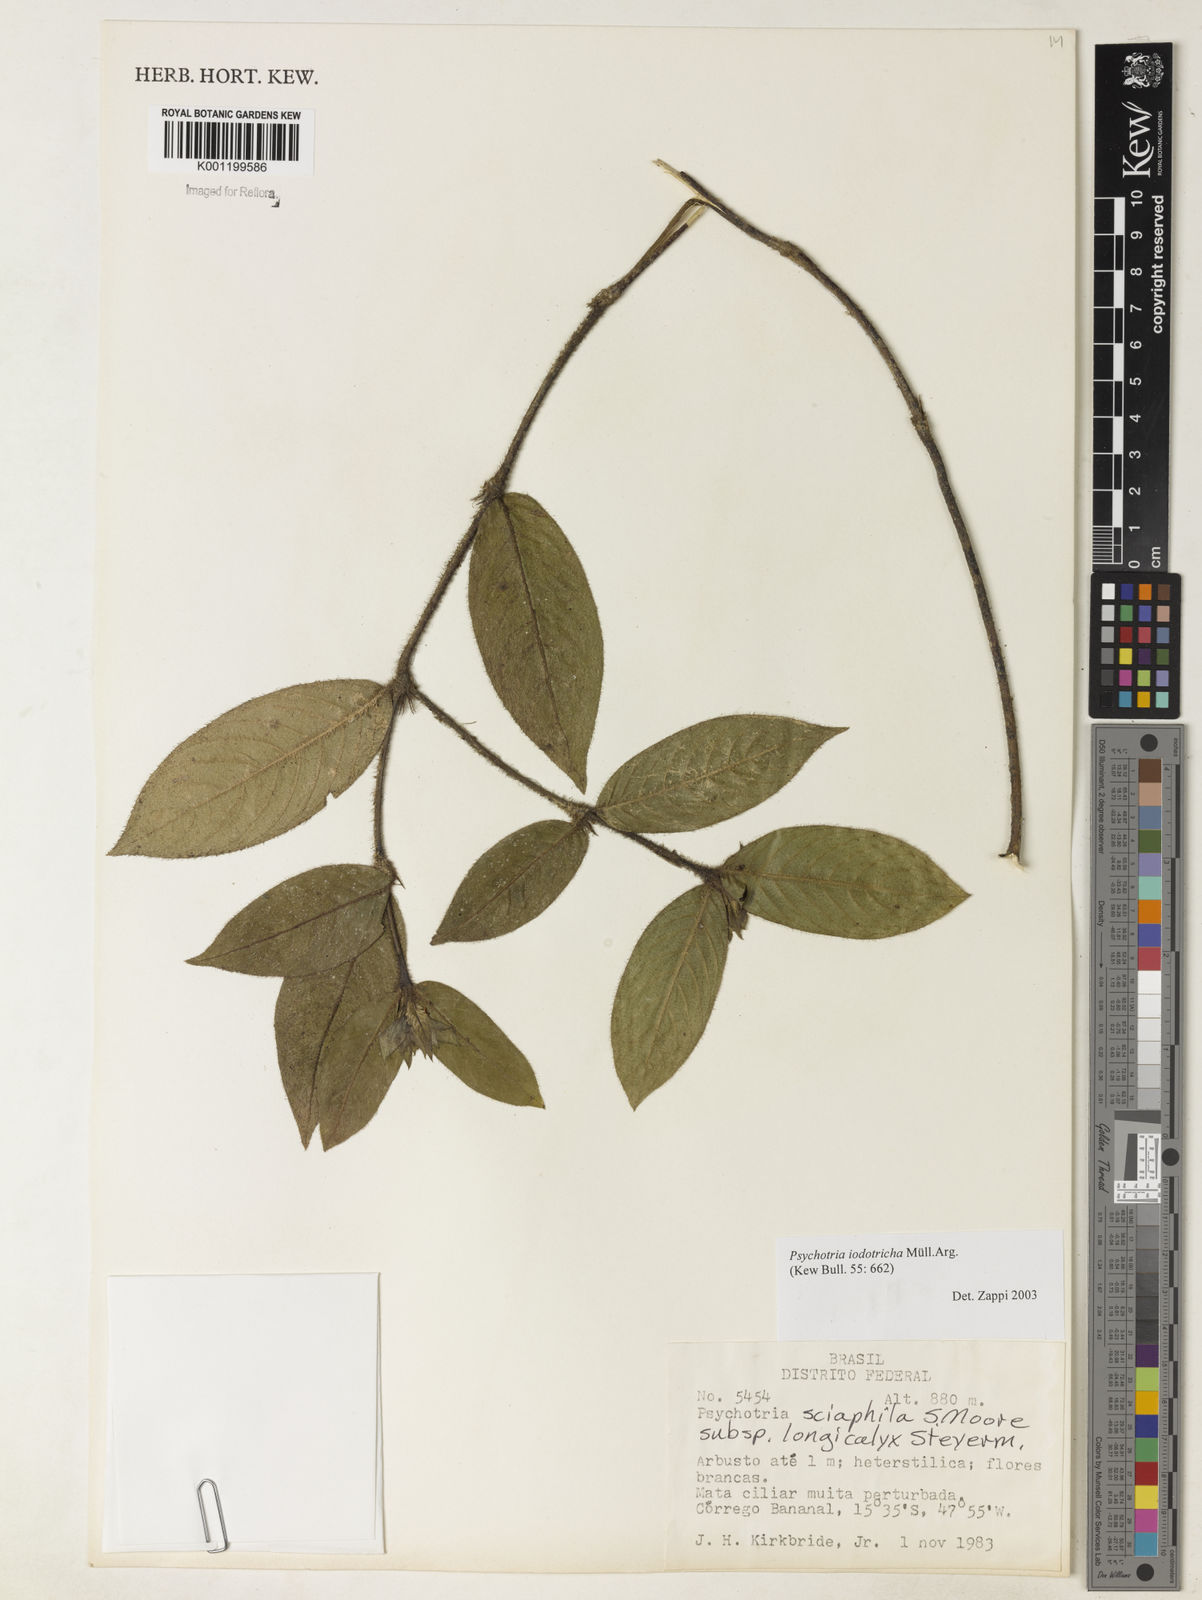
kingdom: Plantae
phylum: Tracheophyta
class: Magnoliopsida
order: Gentianales
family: Rubiaceae
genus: Psychotria
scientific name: Psychotria
